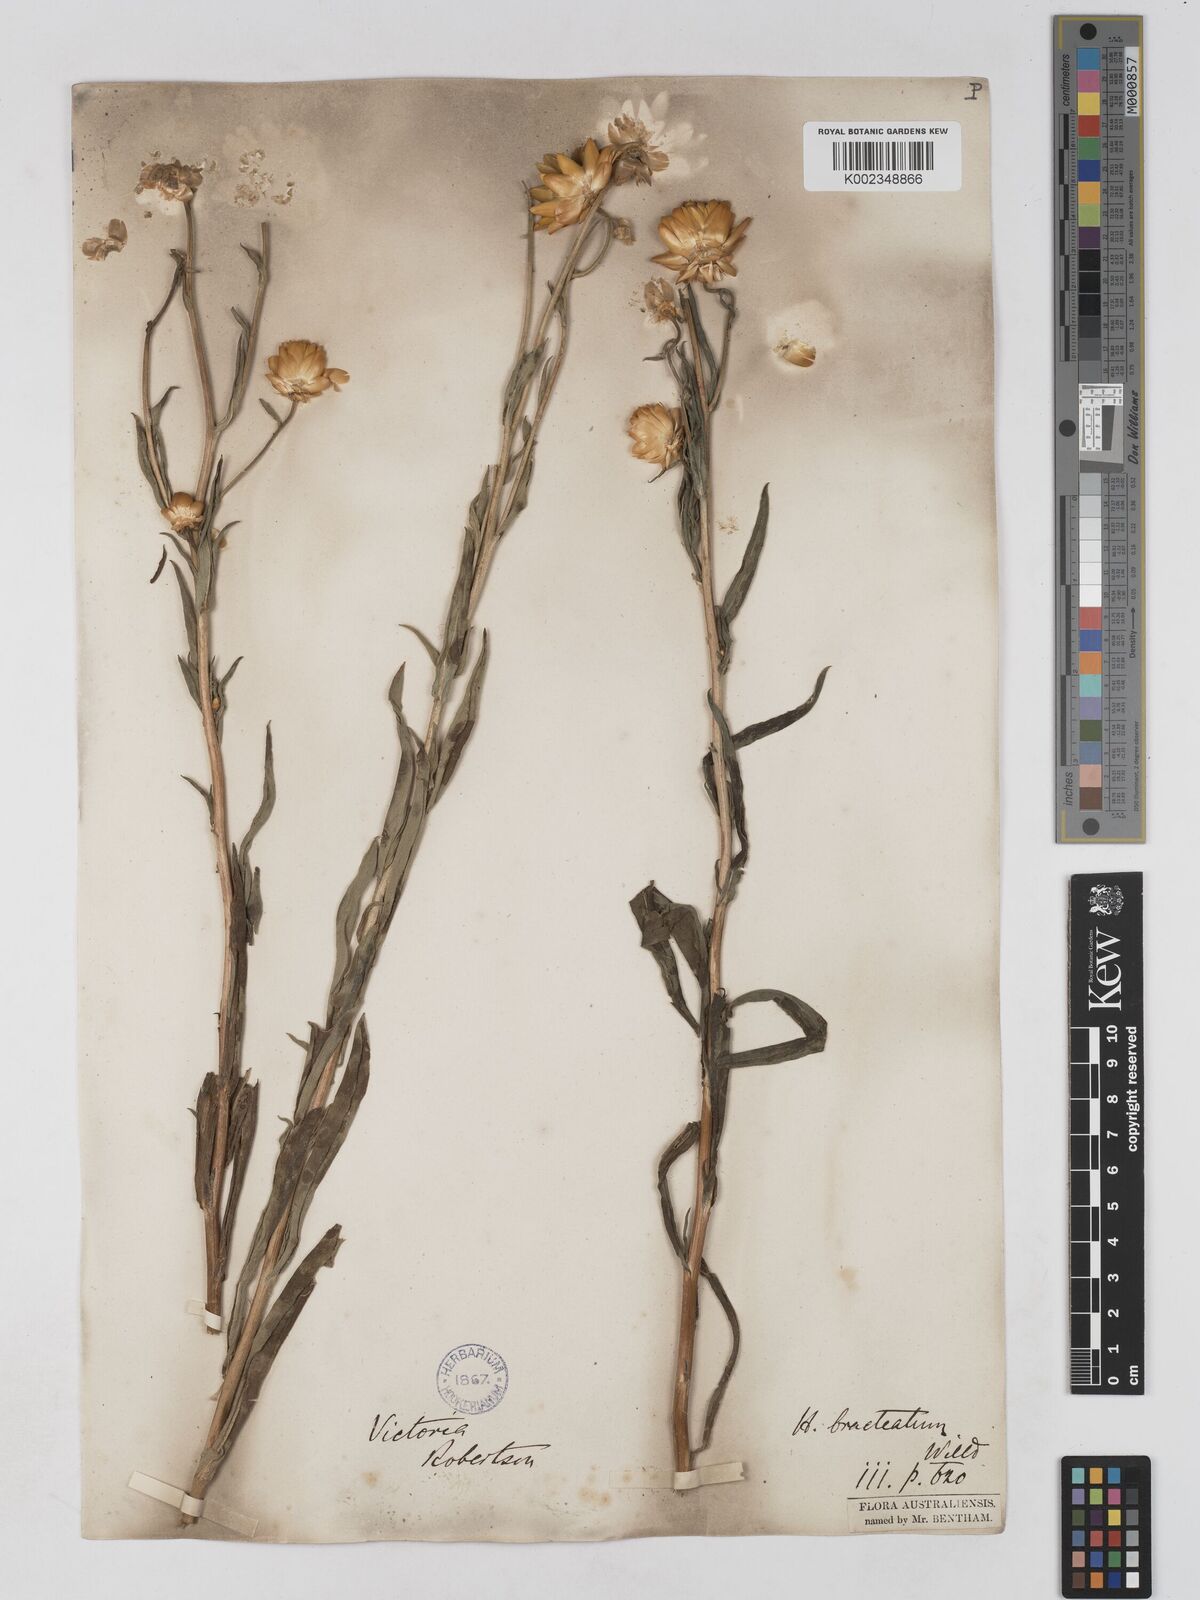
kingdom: Plantae
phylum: Tracheophyta
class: Magnoliopsida
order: Asterales
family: Asteraceae
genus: Xerochrysum
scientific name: Xerochrysum bracteatum
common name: Bracted strawflower
